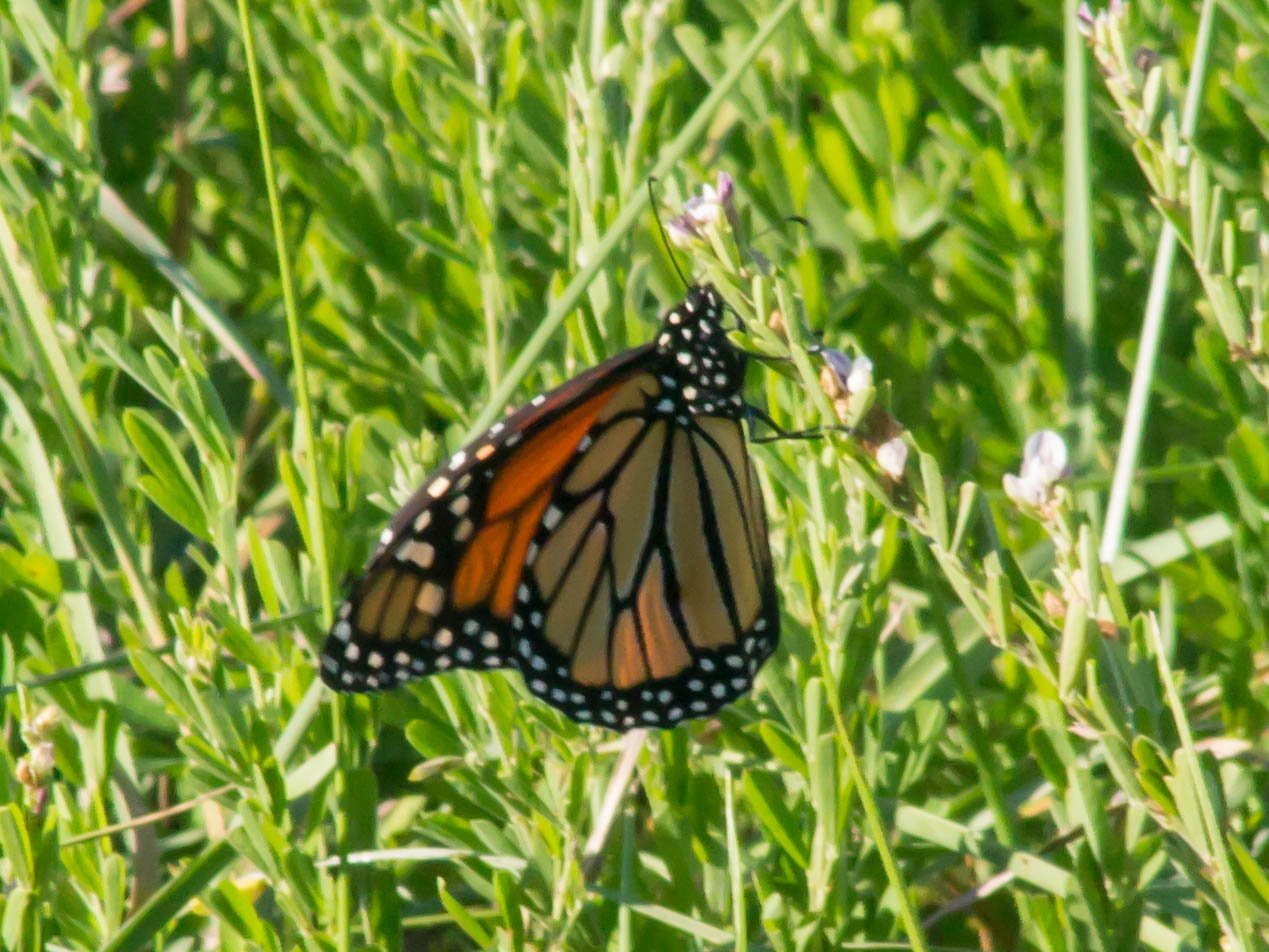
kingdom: Animalia
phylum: Arthropoda
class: Insecta
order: Lepidoptera
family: Nymphalidae
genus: Danaus
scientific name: Danaus plexippus
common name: Monarch
